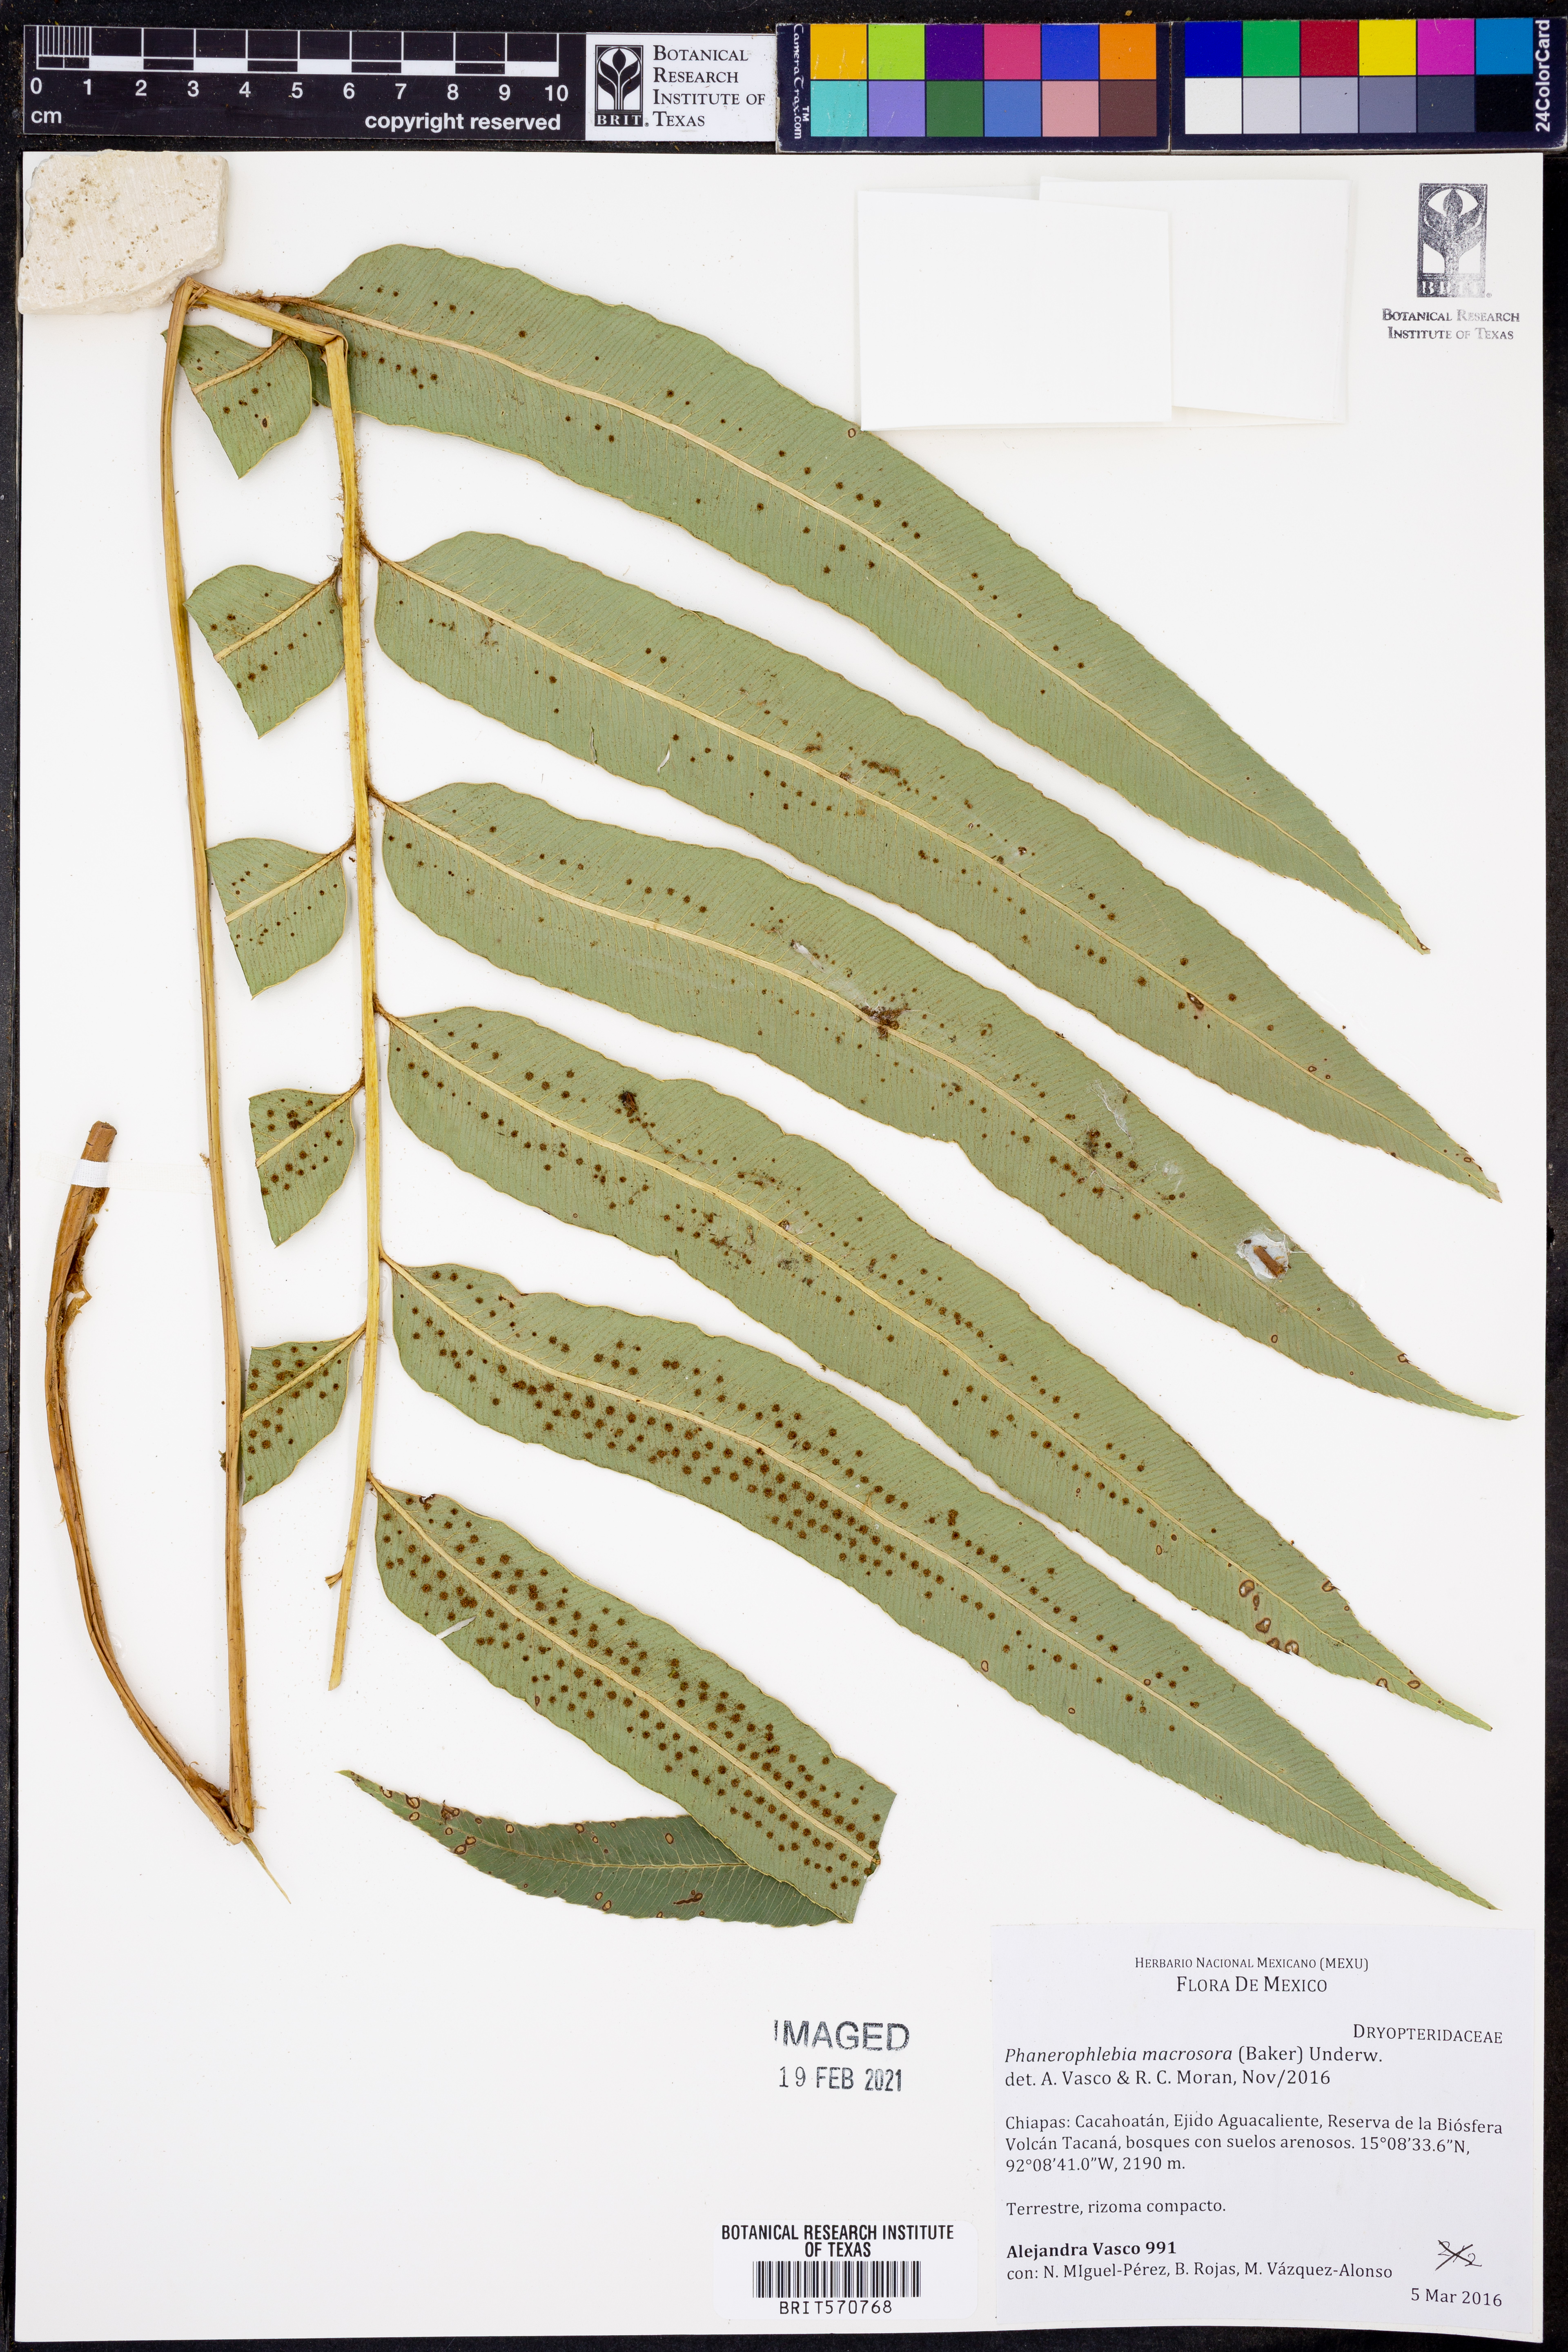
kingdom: Plantae
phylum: Tracheophyta
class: Polypodiopsida
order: Polypodiales
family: Dryopteridaceae
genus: Phanerophlebia
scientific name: Phanerophlebia macrosora
